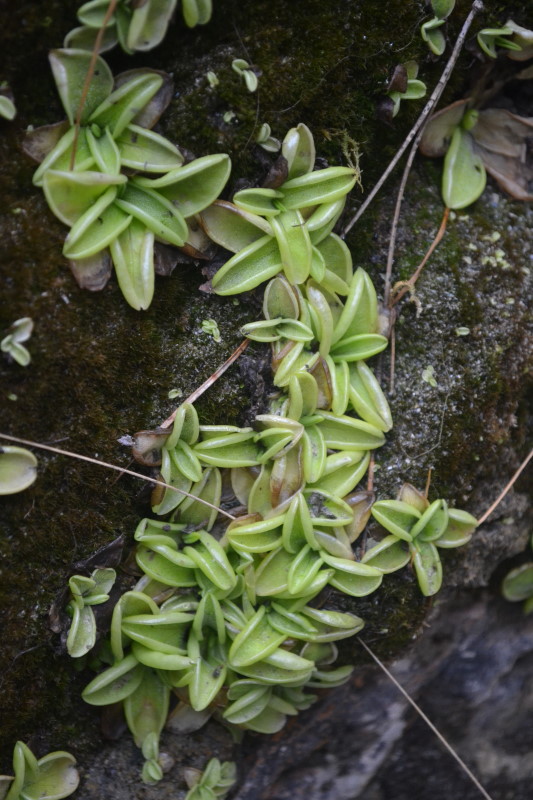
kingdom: Plantae
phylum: Tracheophyta
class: Magnoliopsida
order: Lamiales
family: Lentibulariaceae
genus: Pinguicula
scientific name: Pinguicula crystallina
